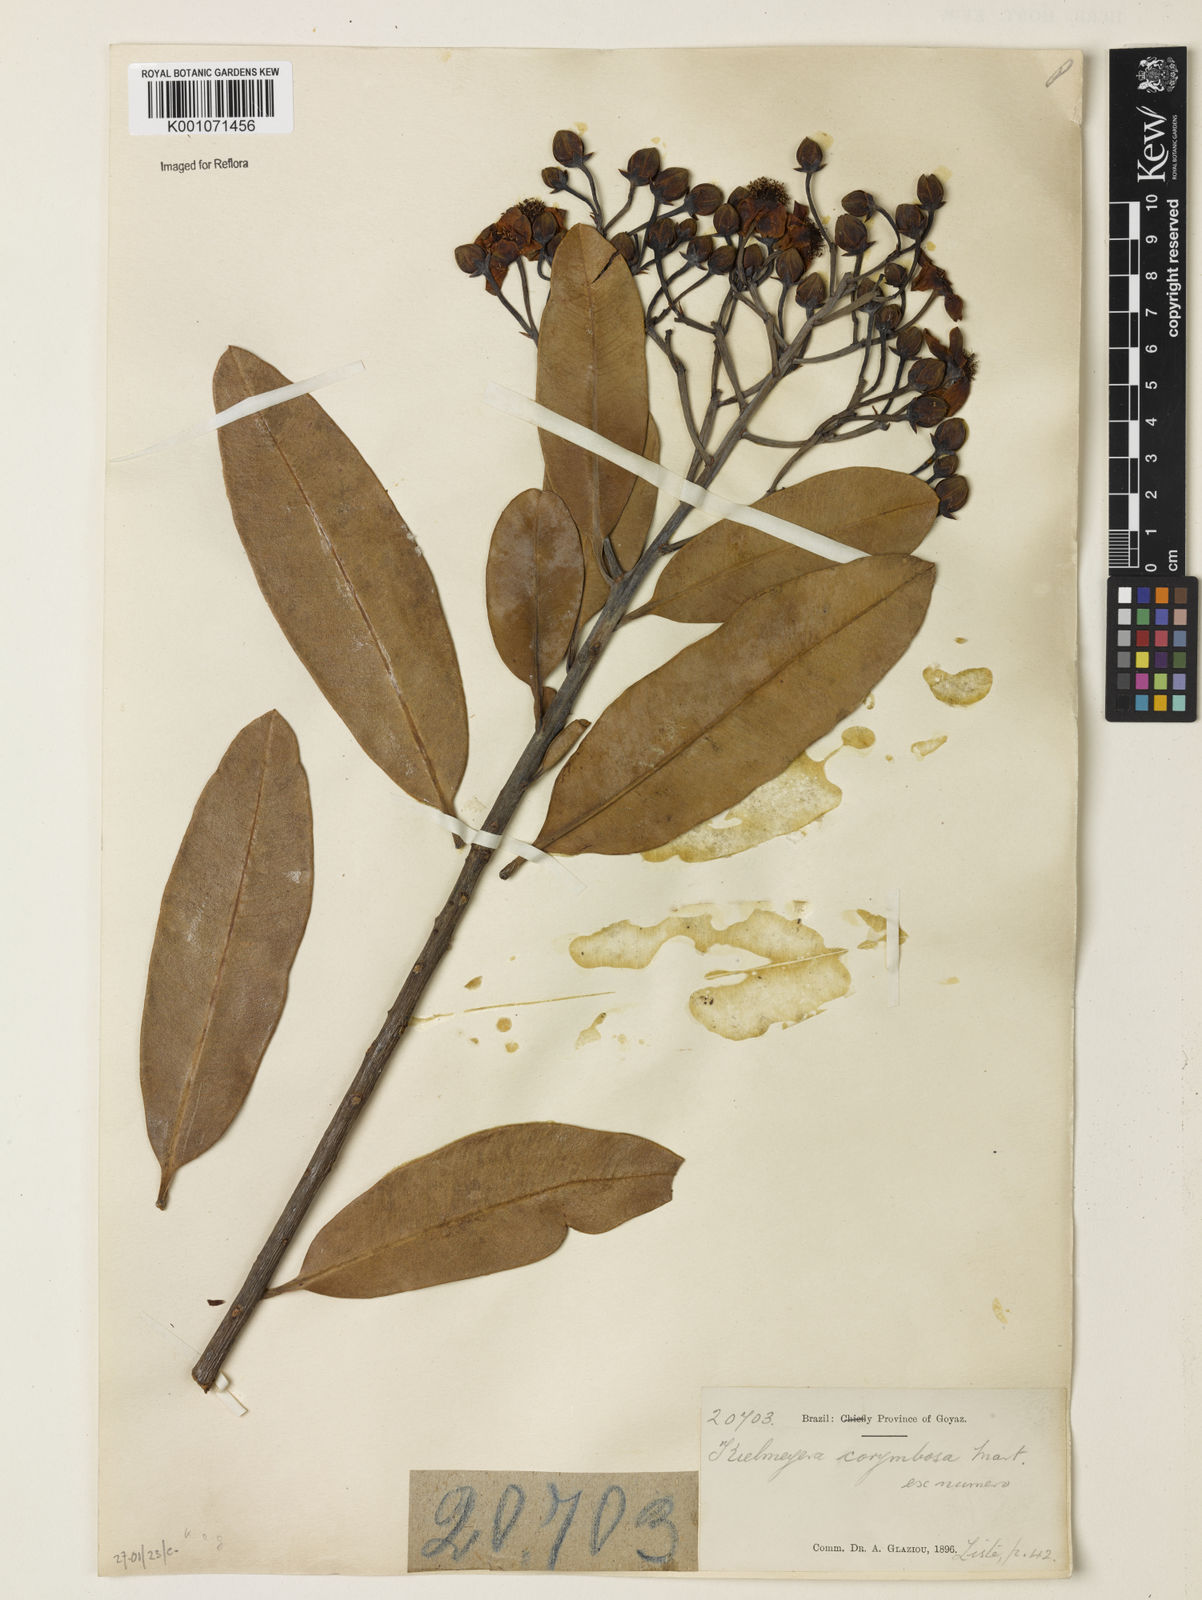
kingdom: Plantae
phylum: Tracheophyta
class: Magnoliopsida
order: Malpighiales
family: Calophyllaceae
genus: Kielmeyera
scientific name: Kielmeyera corymbosa
